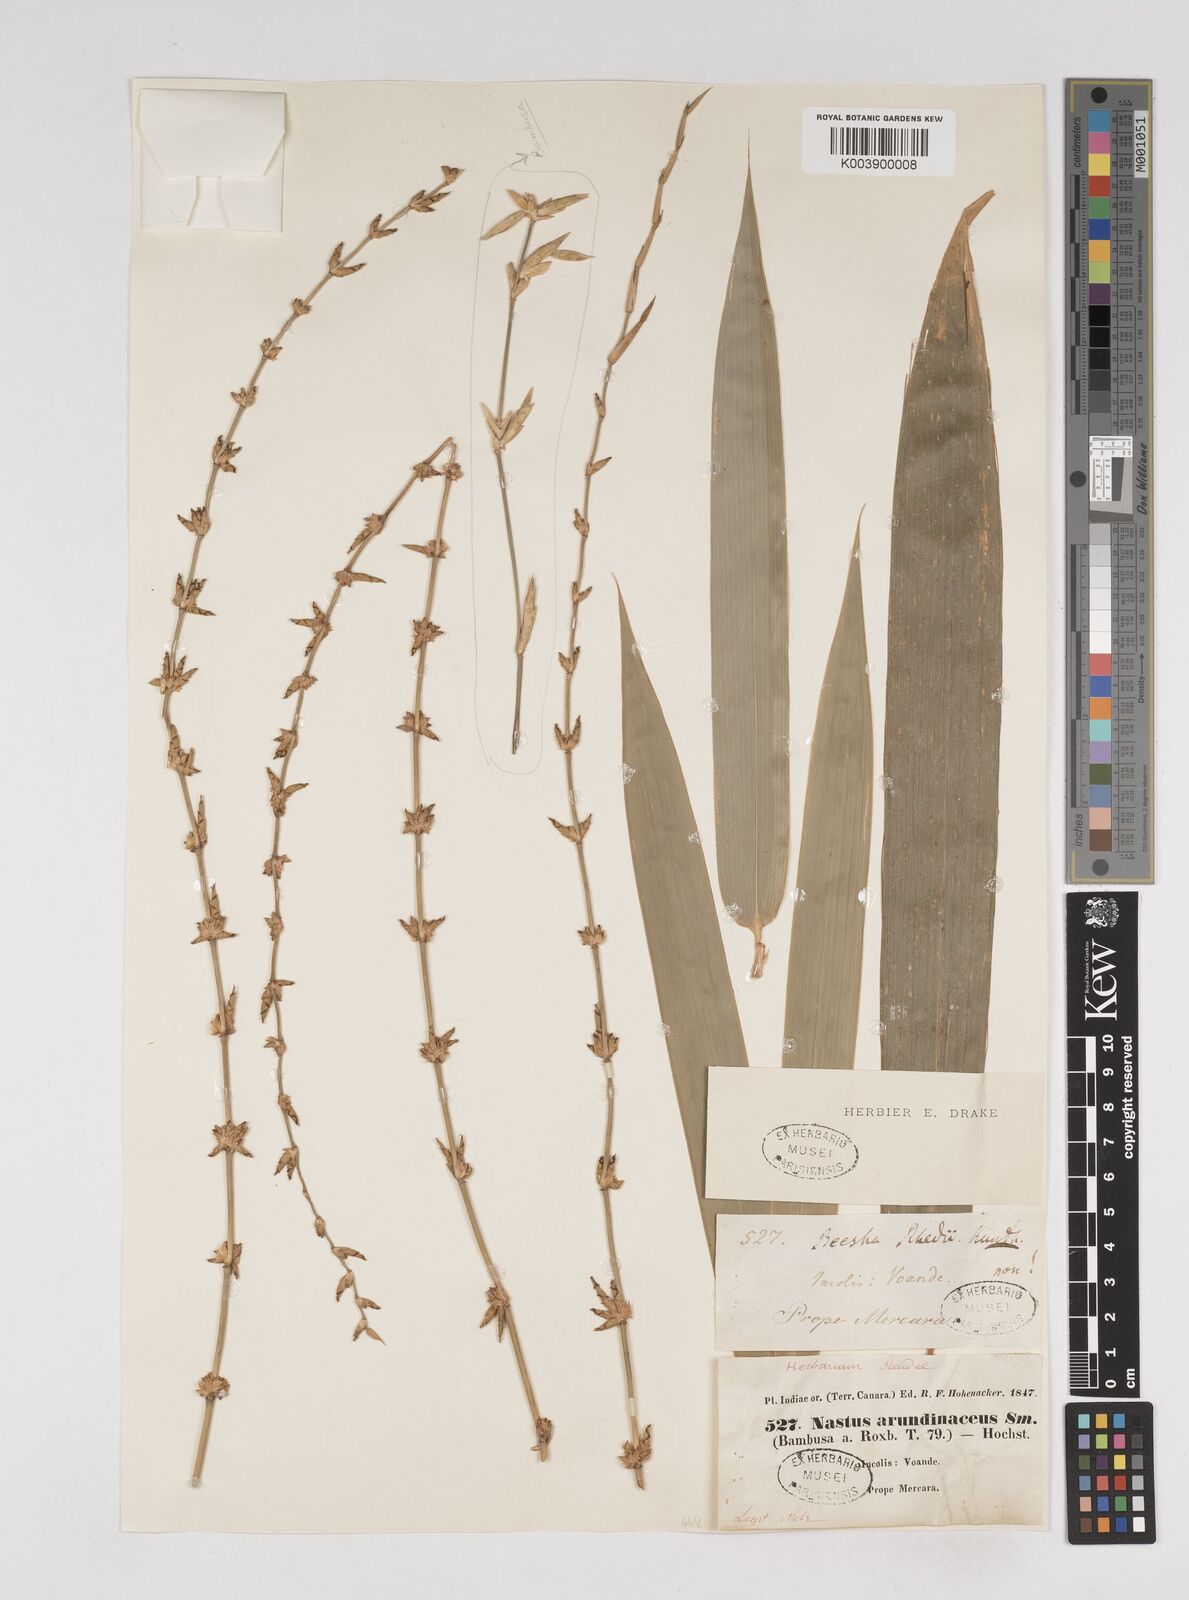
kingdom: Plantae
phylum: Tracheophyta
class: Liliopsida
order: Poales
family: Poaceae
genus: Gigantochloa
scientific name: Gigantochloa
